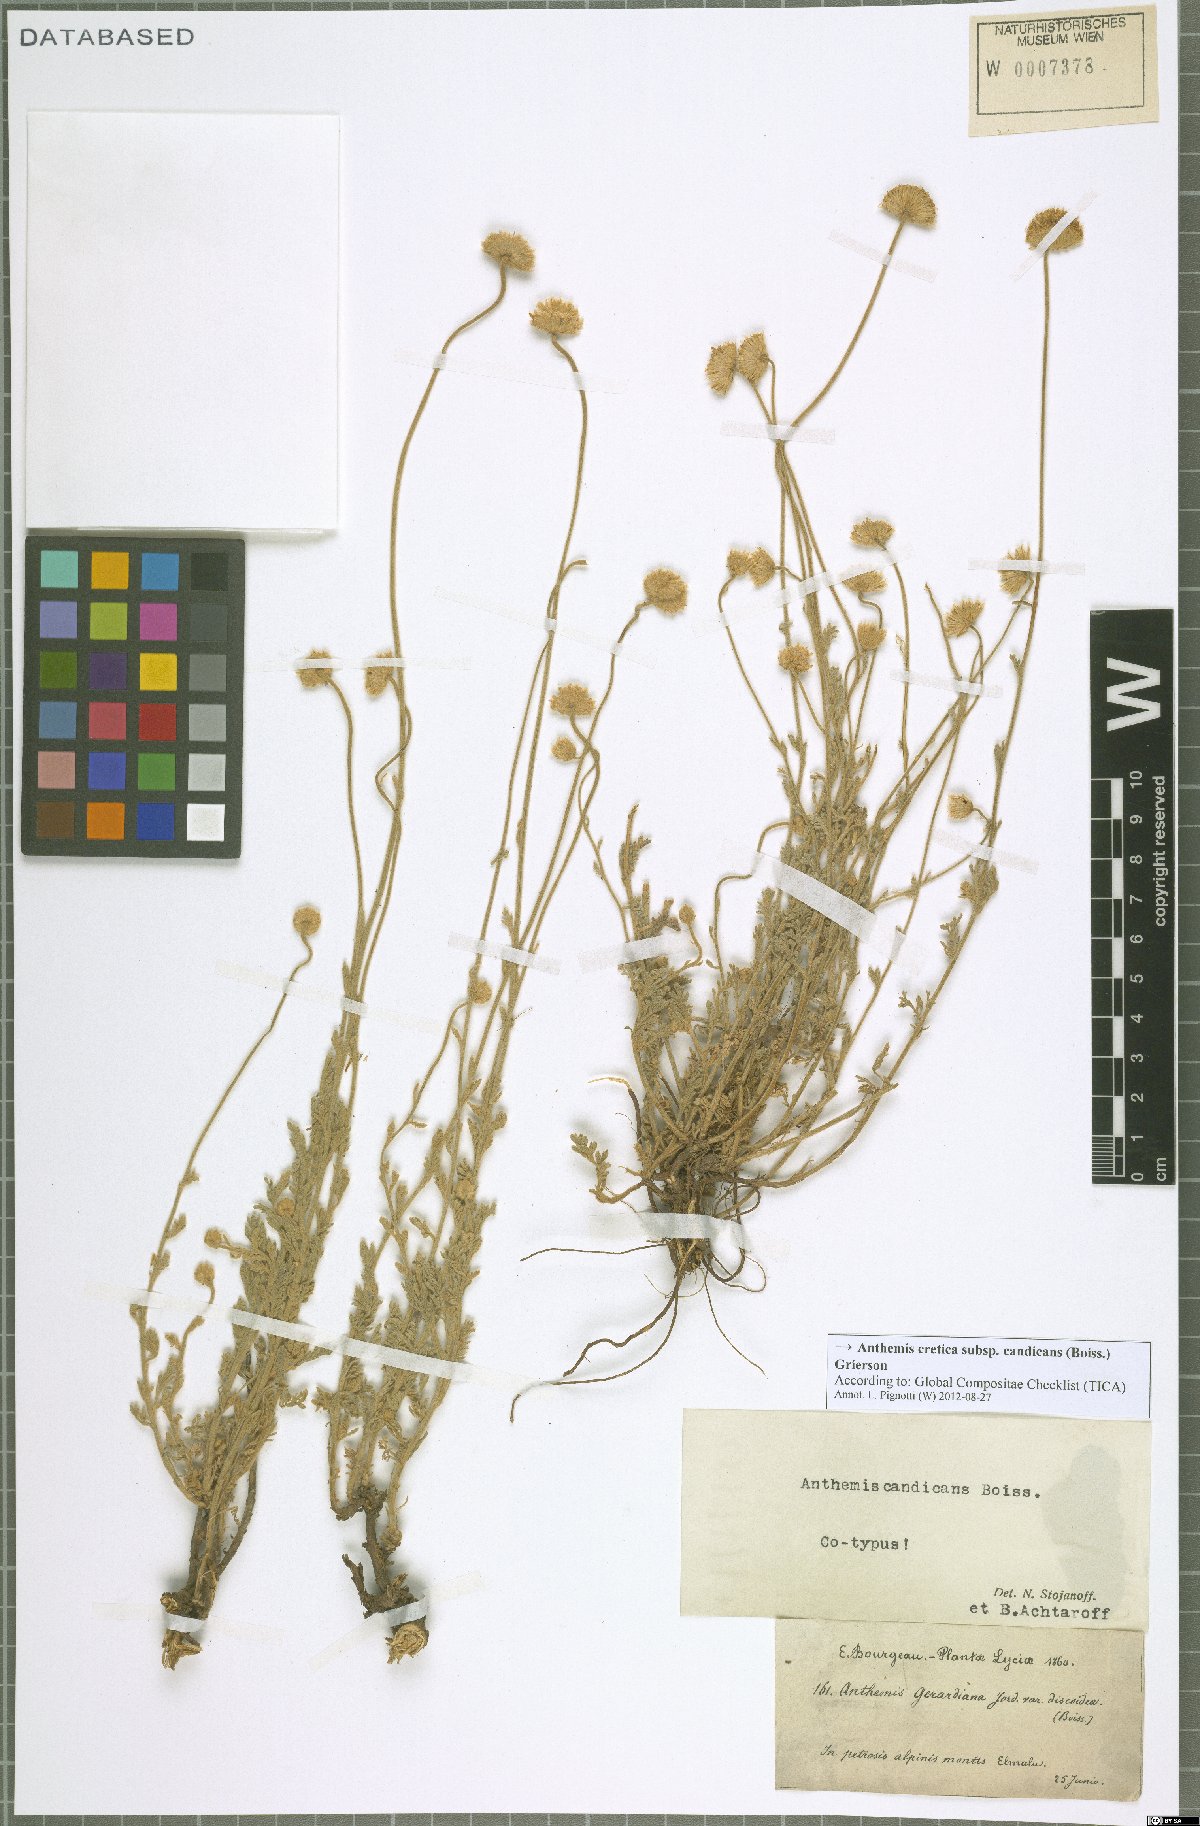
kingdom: Plantae
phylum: Tracheophyta
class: Magnoliopsida
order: Asterales
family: Asteraceae
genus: Anthemis
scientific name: Anthemis cretica
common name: Mountain dog-daisy
